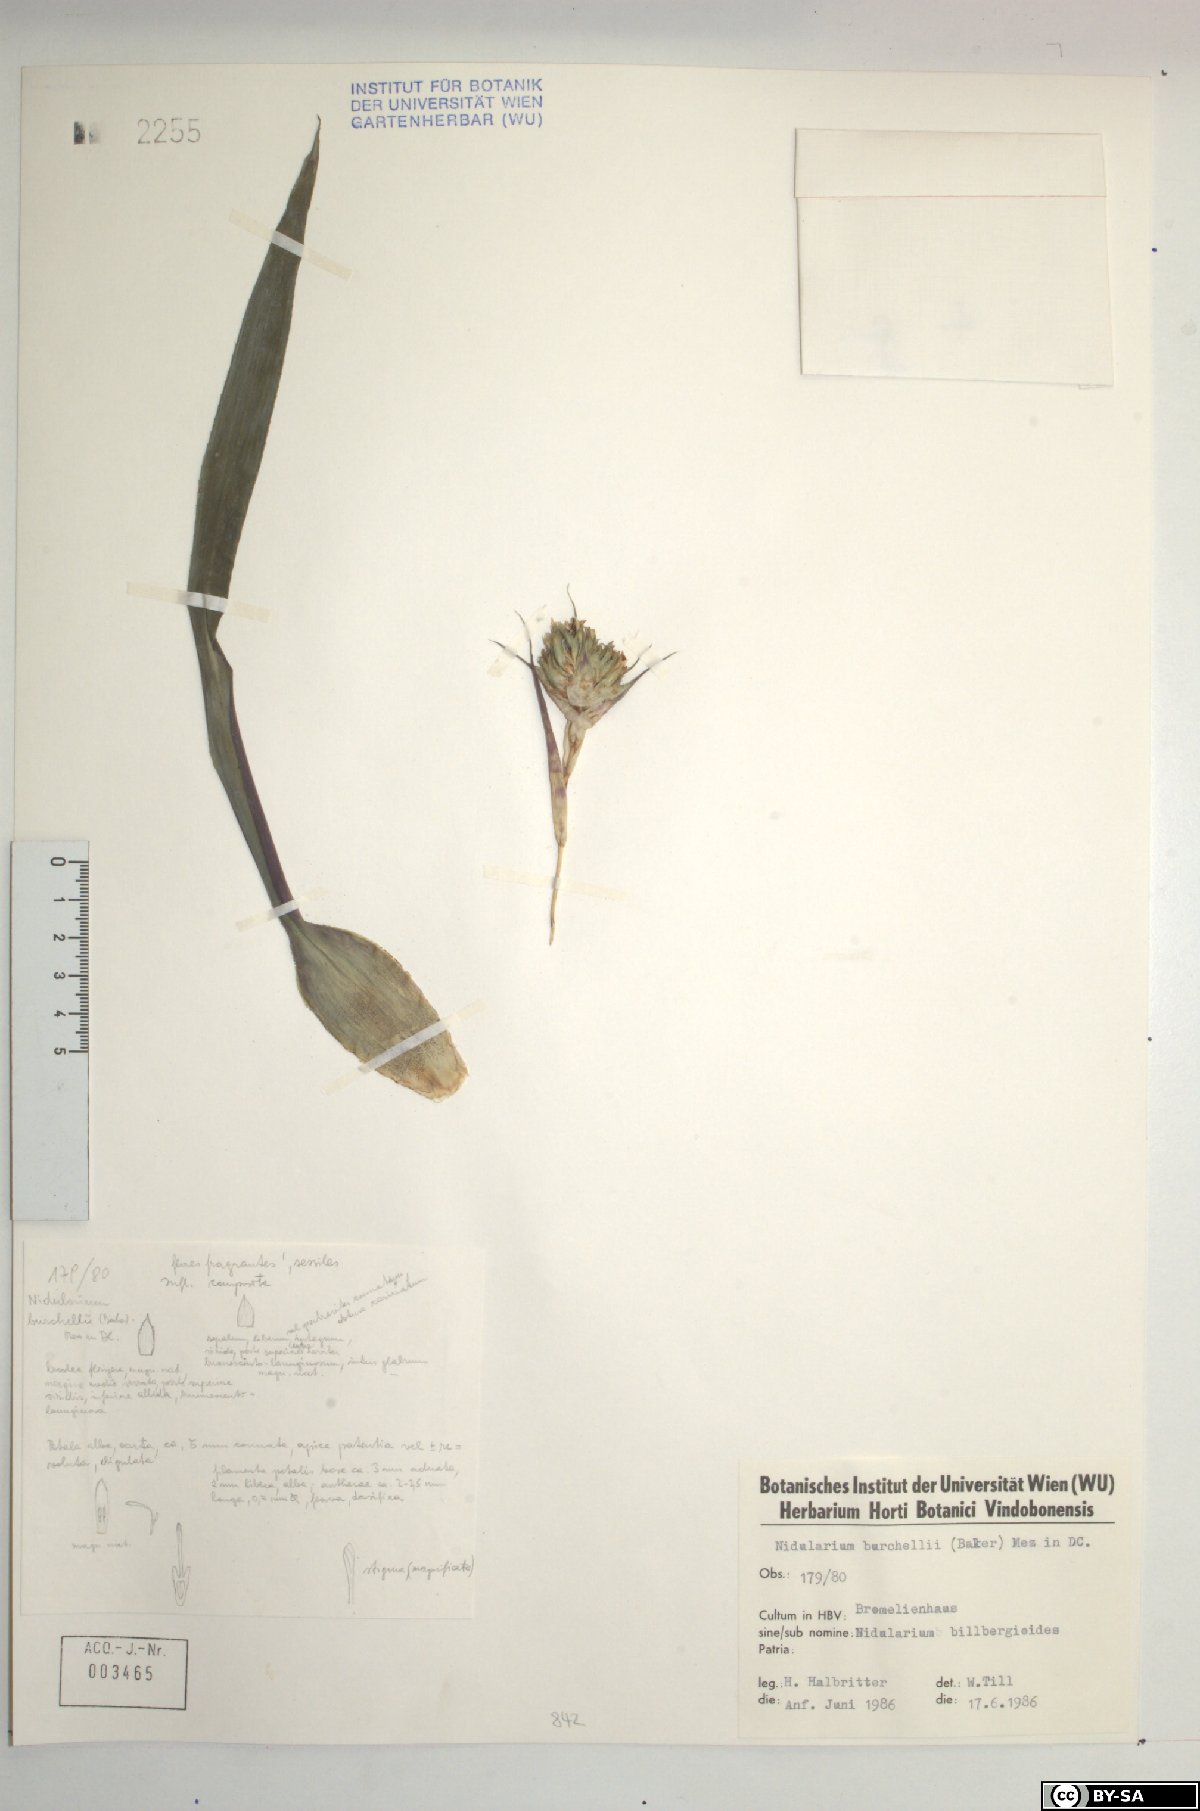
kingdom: Plantae
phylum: Tracheophyta
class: Liliopsida
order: Poales
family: Bromeliaceae
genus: Canistropsis
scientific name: Canistropsis burchellii
